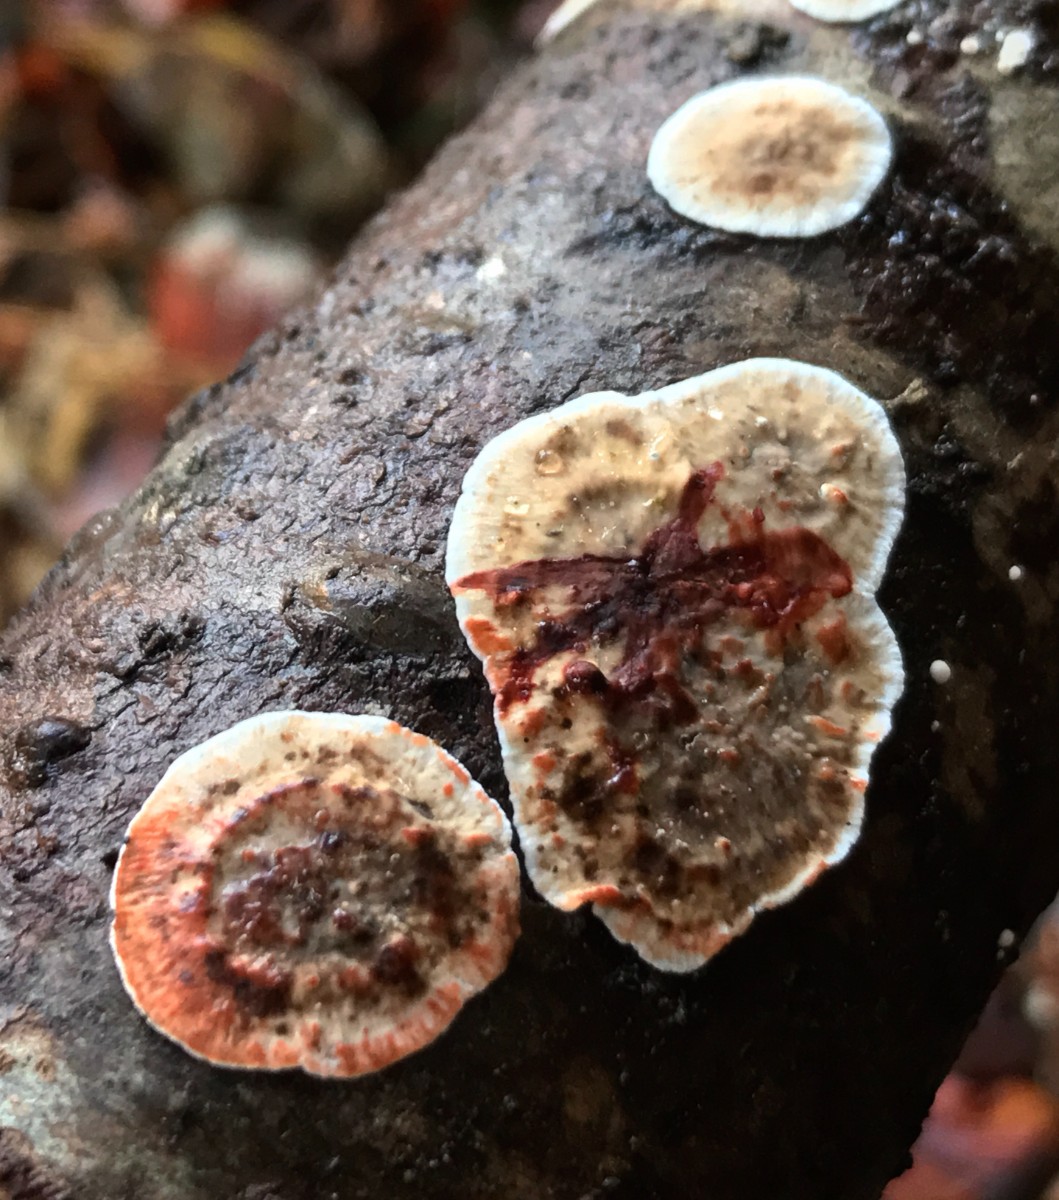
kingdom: Fungi
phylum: Basidiomycota
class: Agaricomycetes
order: Russulales
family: Stereaceae
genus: Stereum
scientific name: Stereum sanguinolentum
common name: blødende lædersvamp
